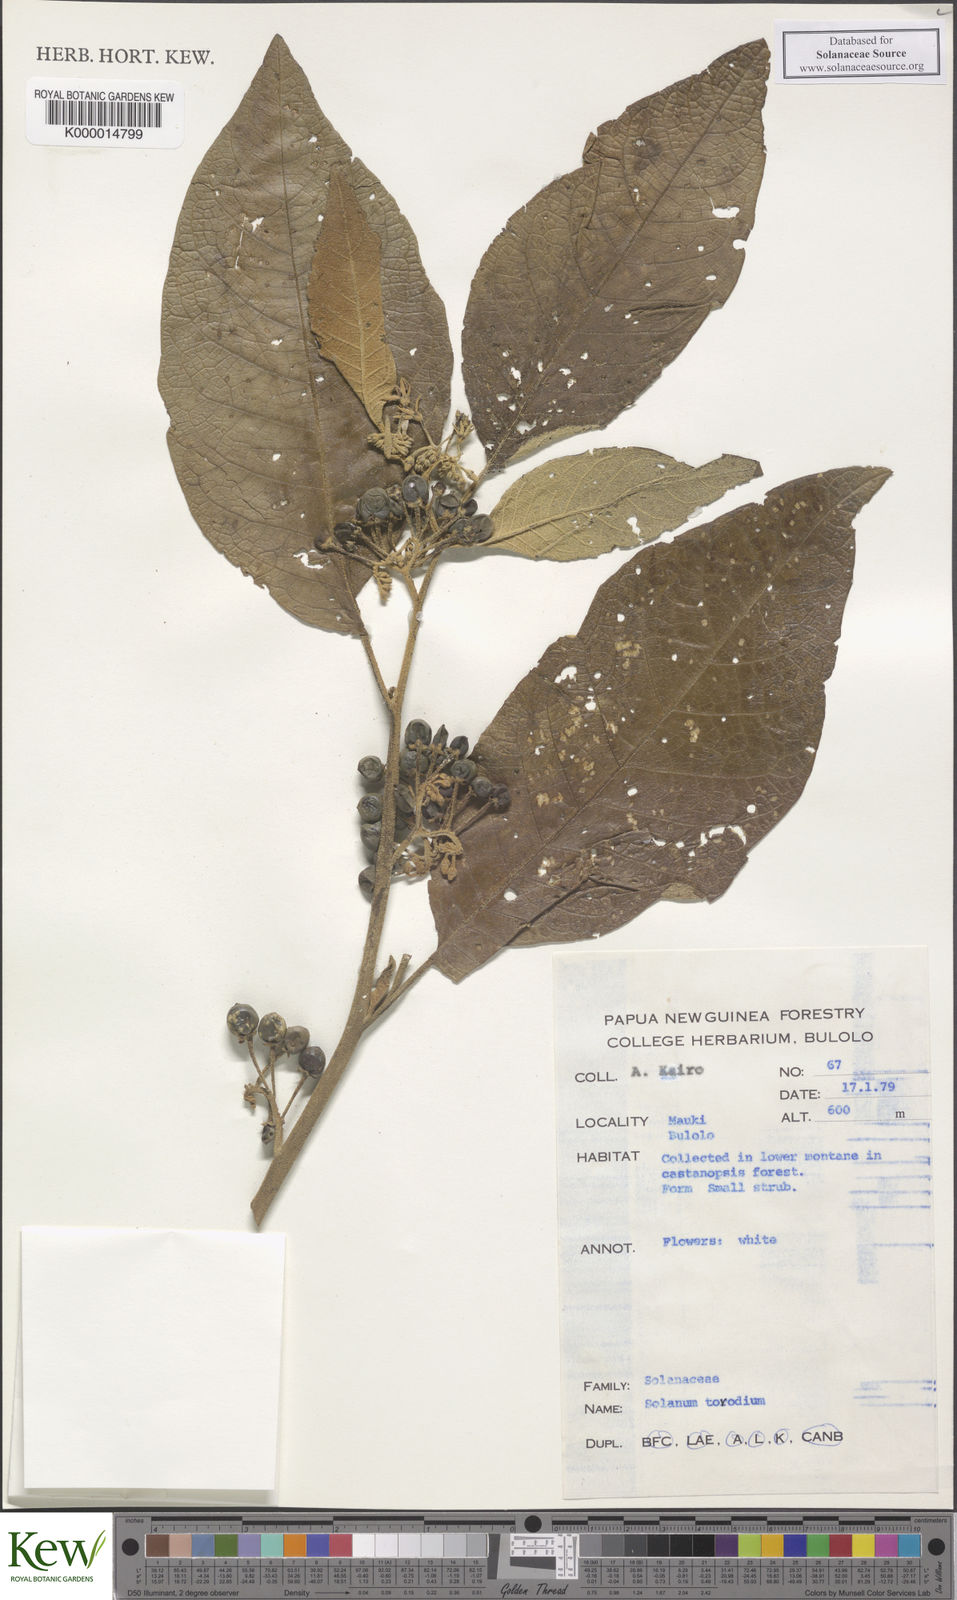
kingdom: Plantae
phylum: Tracheophyta
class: Magnoliopsida
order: Solanales
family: Solanaceae
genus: Solanum
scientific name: Solanum torricellense
